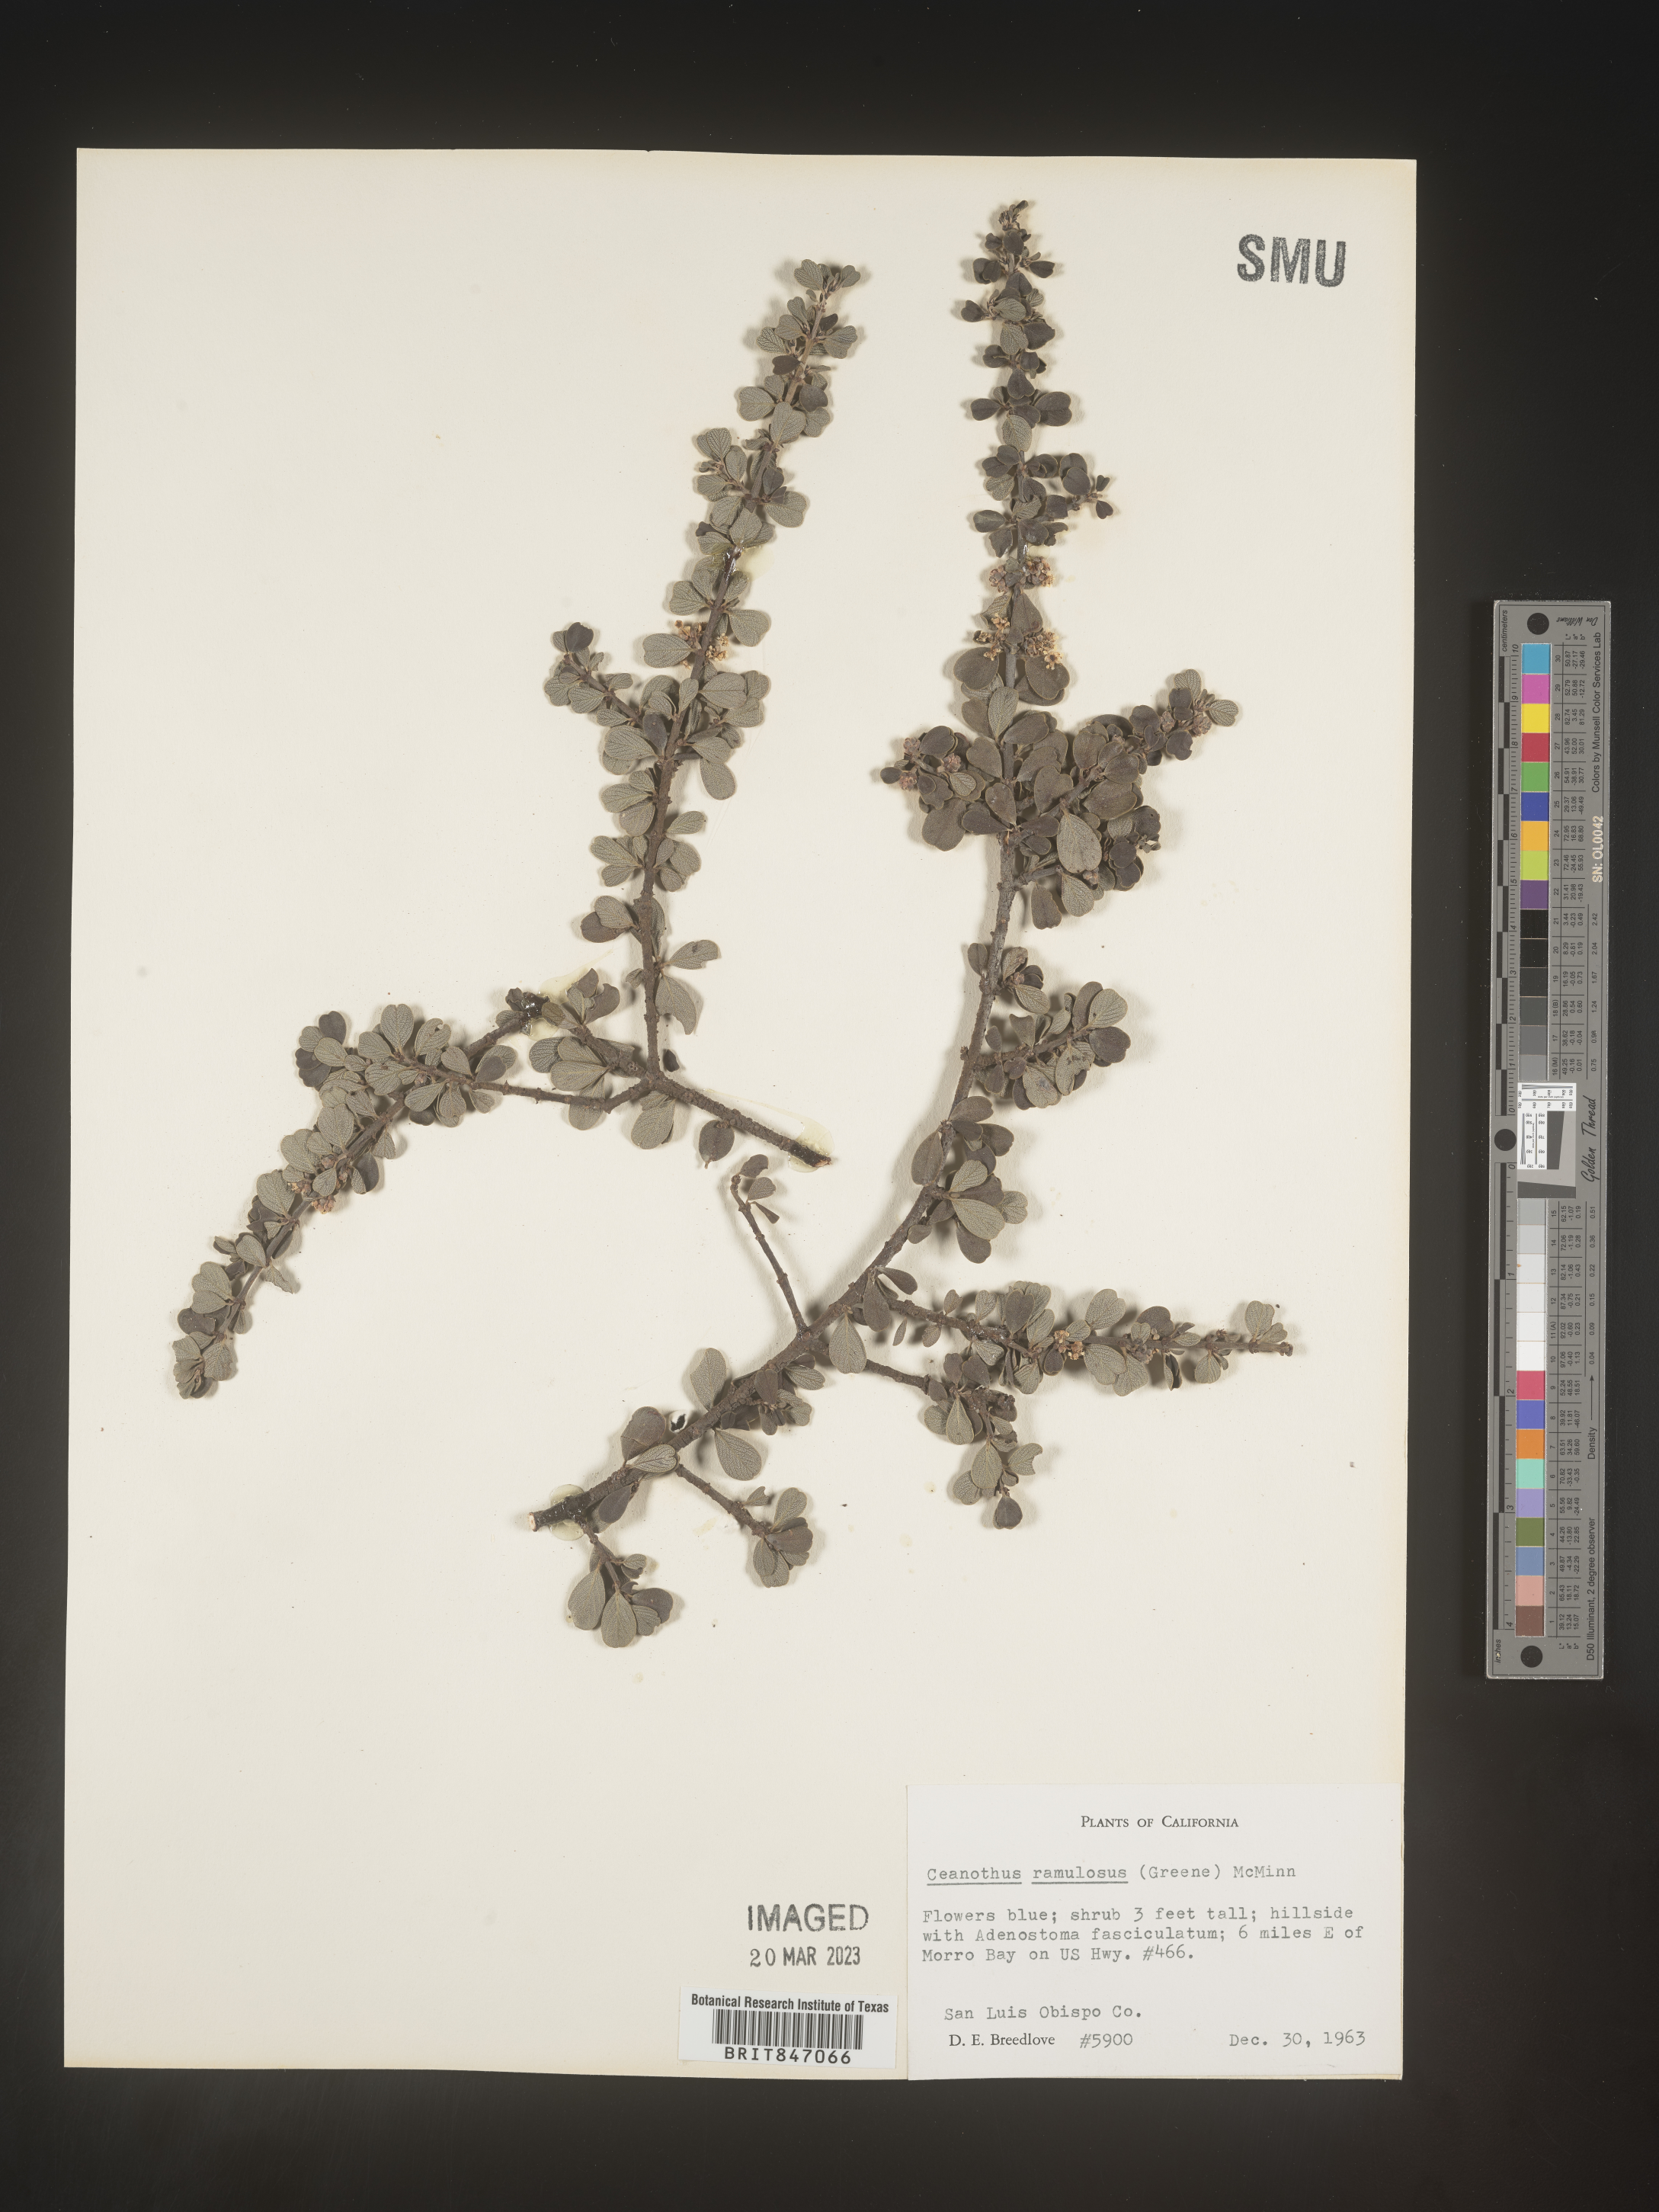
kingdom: Plantae
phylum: Tracheophyta
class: Magnoliopsida
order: Rosales
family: Rhamnaceae
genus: Ceanothus
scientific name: Ceanothus
